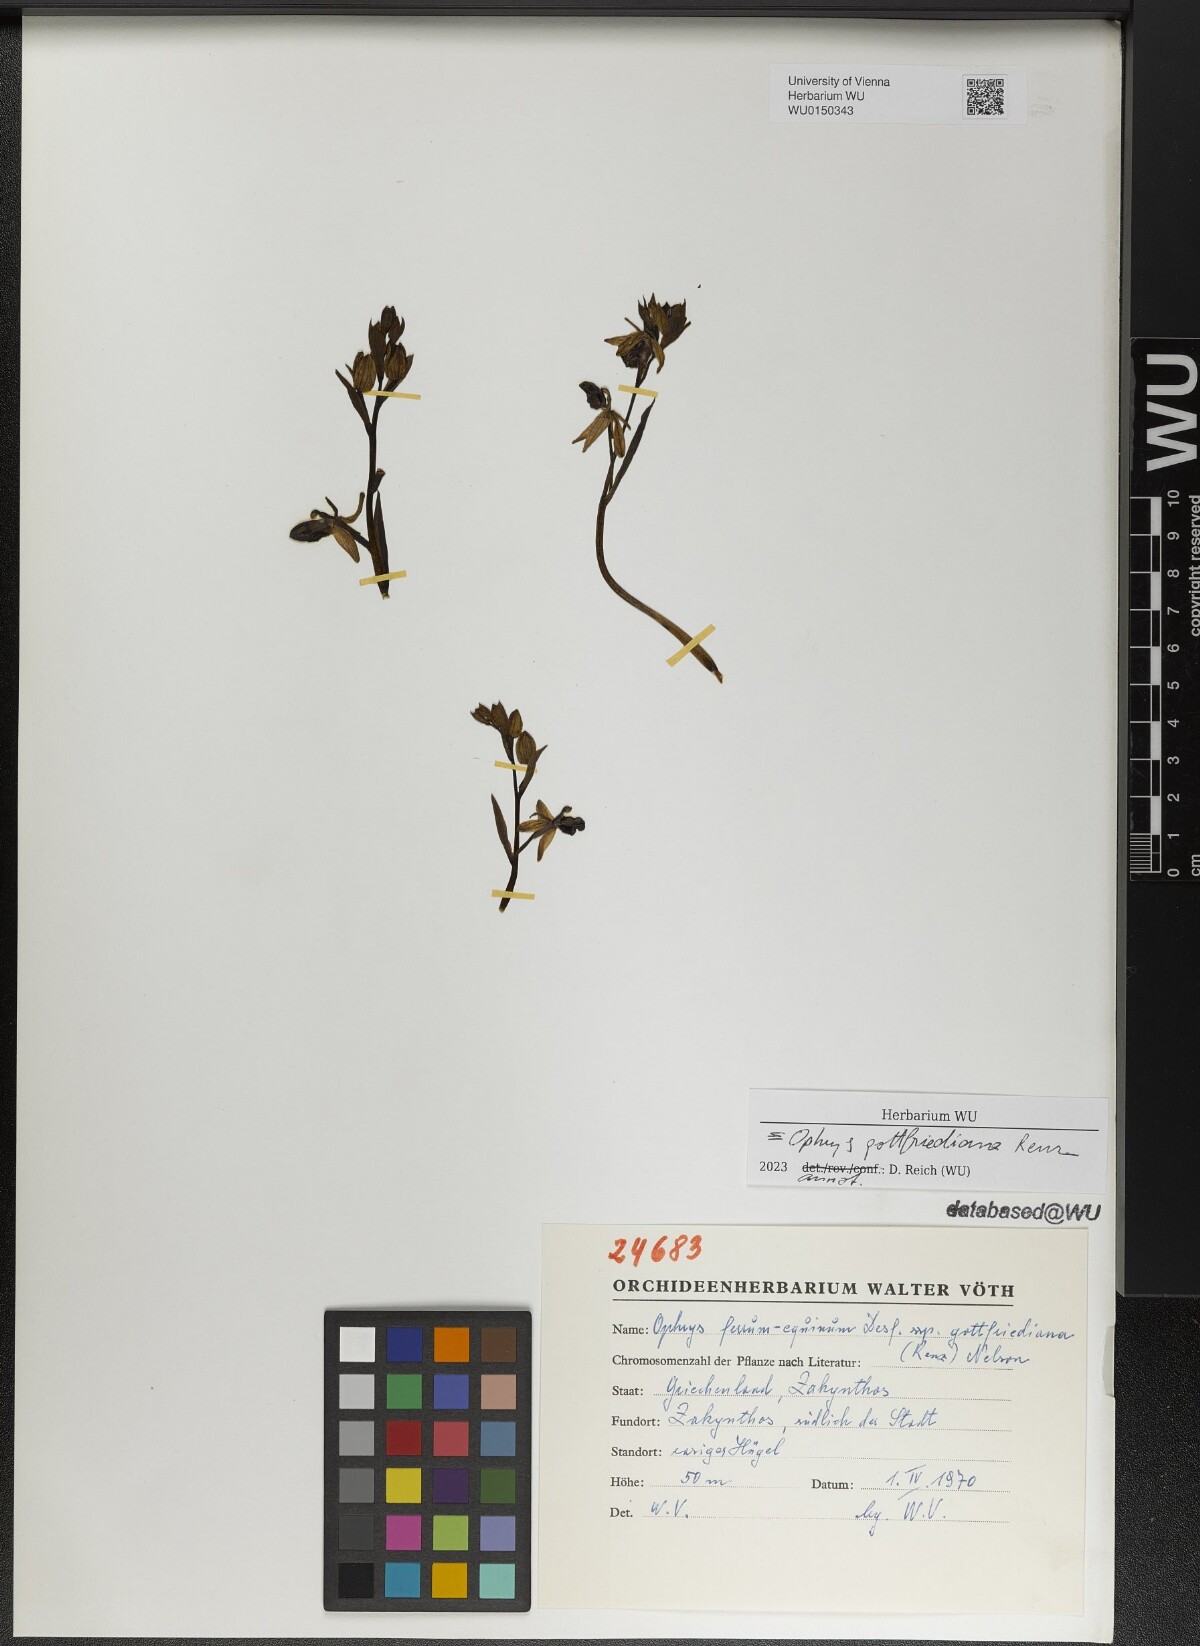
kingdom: Plantae
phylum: Tracheophyta
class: Liliopsida
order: Asparagales
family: Orchidaceae
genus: Ophrys
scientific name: Ophrys ferrum-equinum
